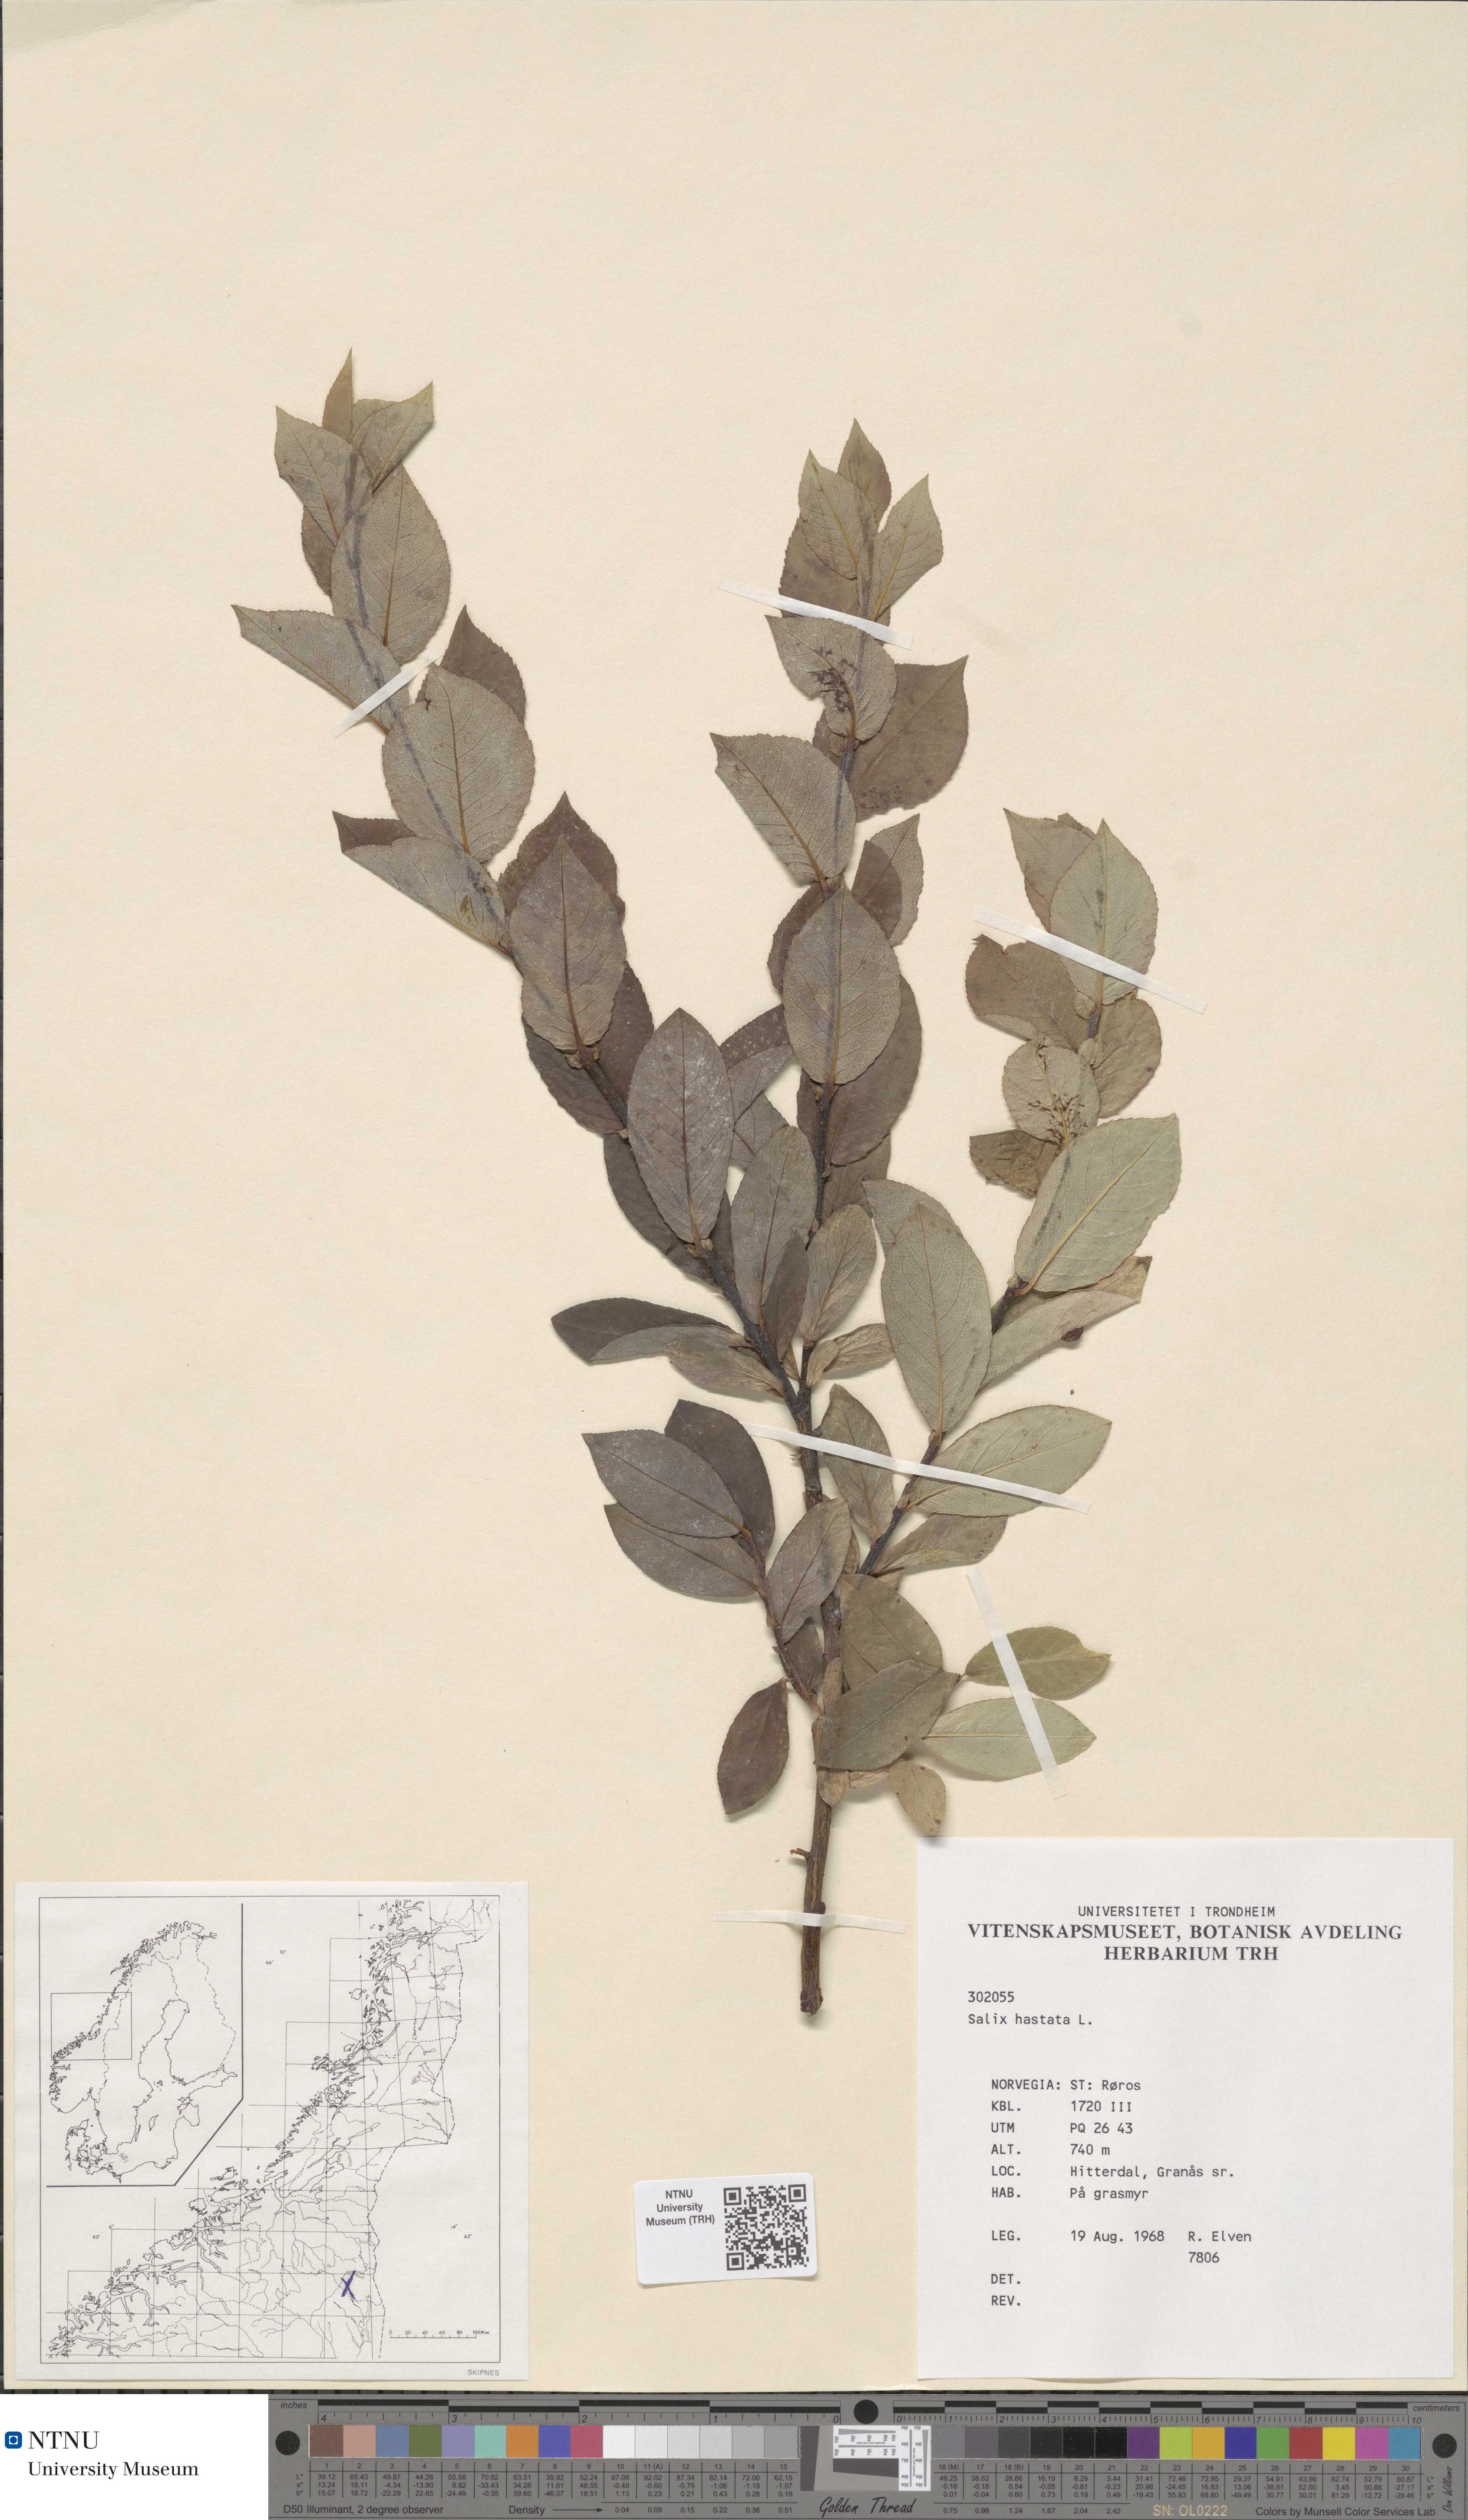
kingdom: Plantae
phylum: Tracheophyta
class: Magnoliopsida
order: Malpighiales
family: Salicaceae
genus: Salix
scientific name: Salix hastata
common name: Halberd willow
